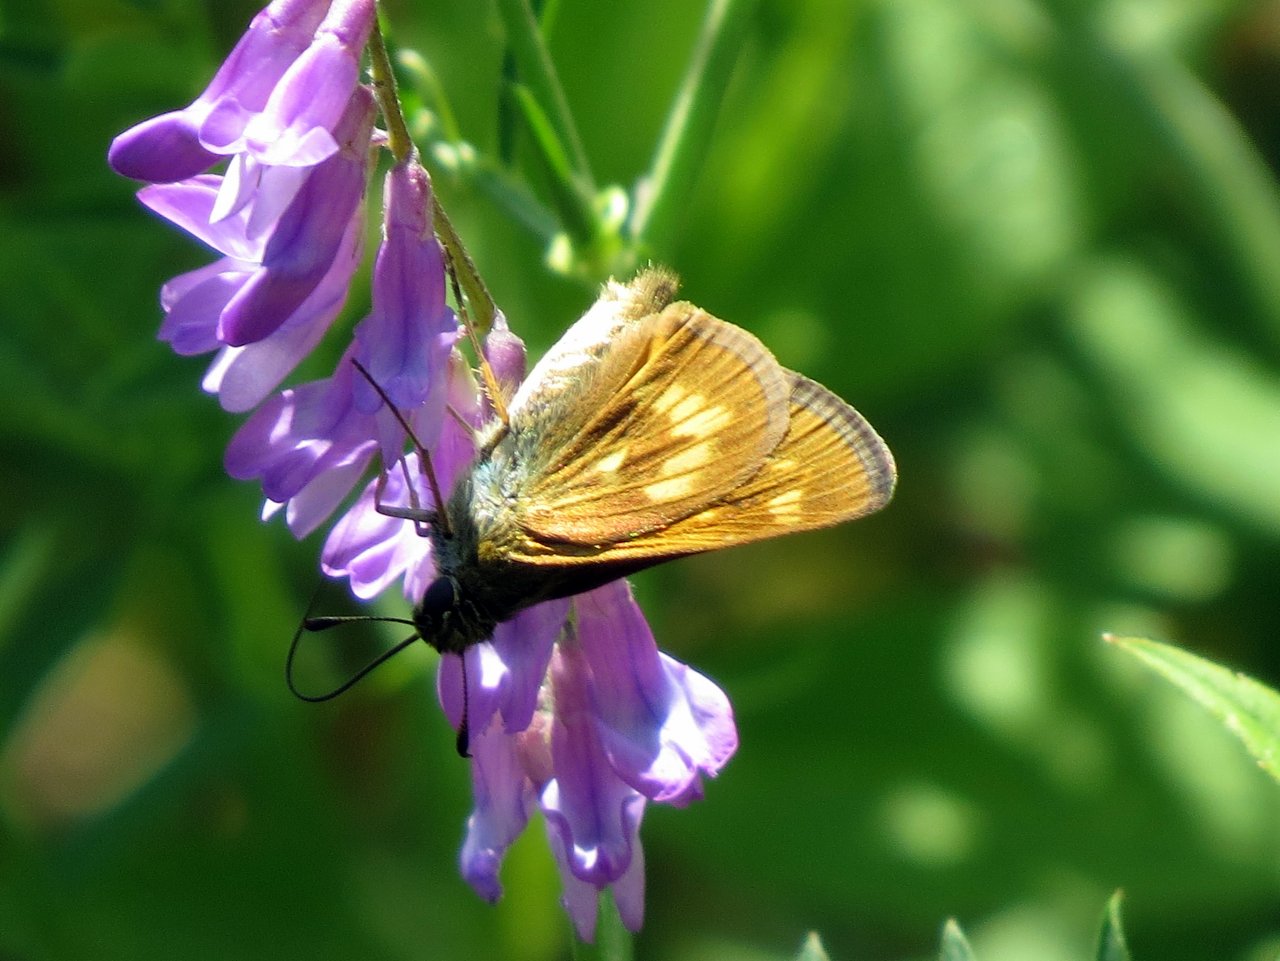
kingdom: Animalia
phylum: Arthropoda
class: Insecta
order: Lepidoptera
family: Hesperiidae
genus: Polites
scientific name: Polites
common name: Long Dash Skipper
